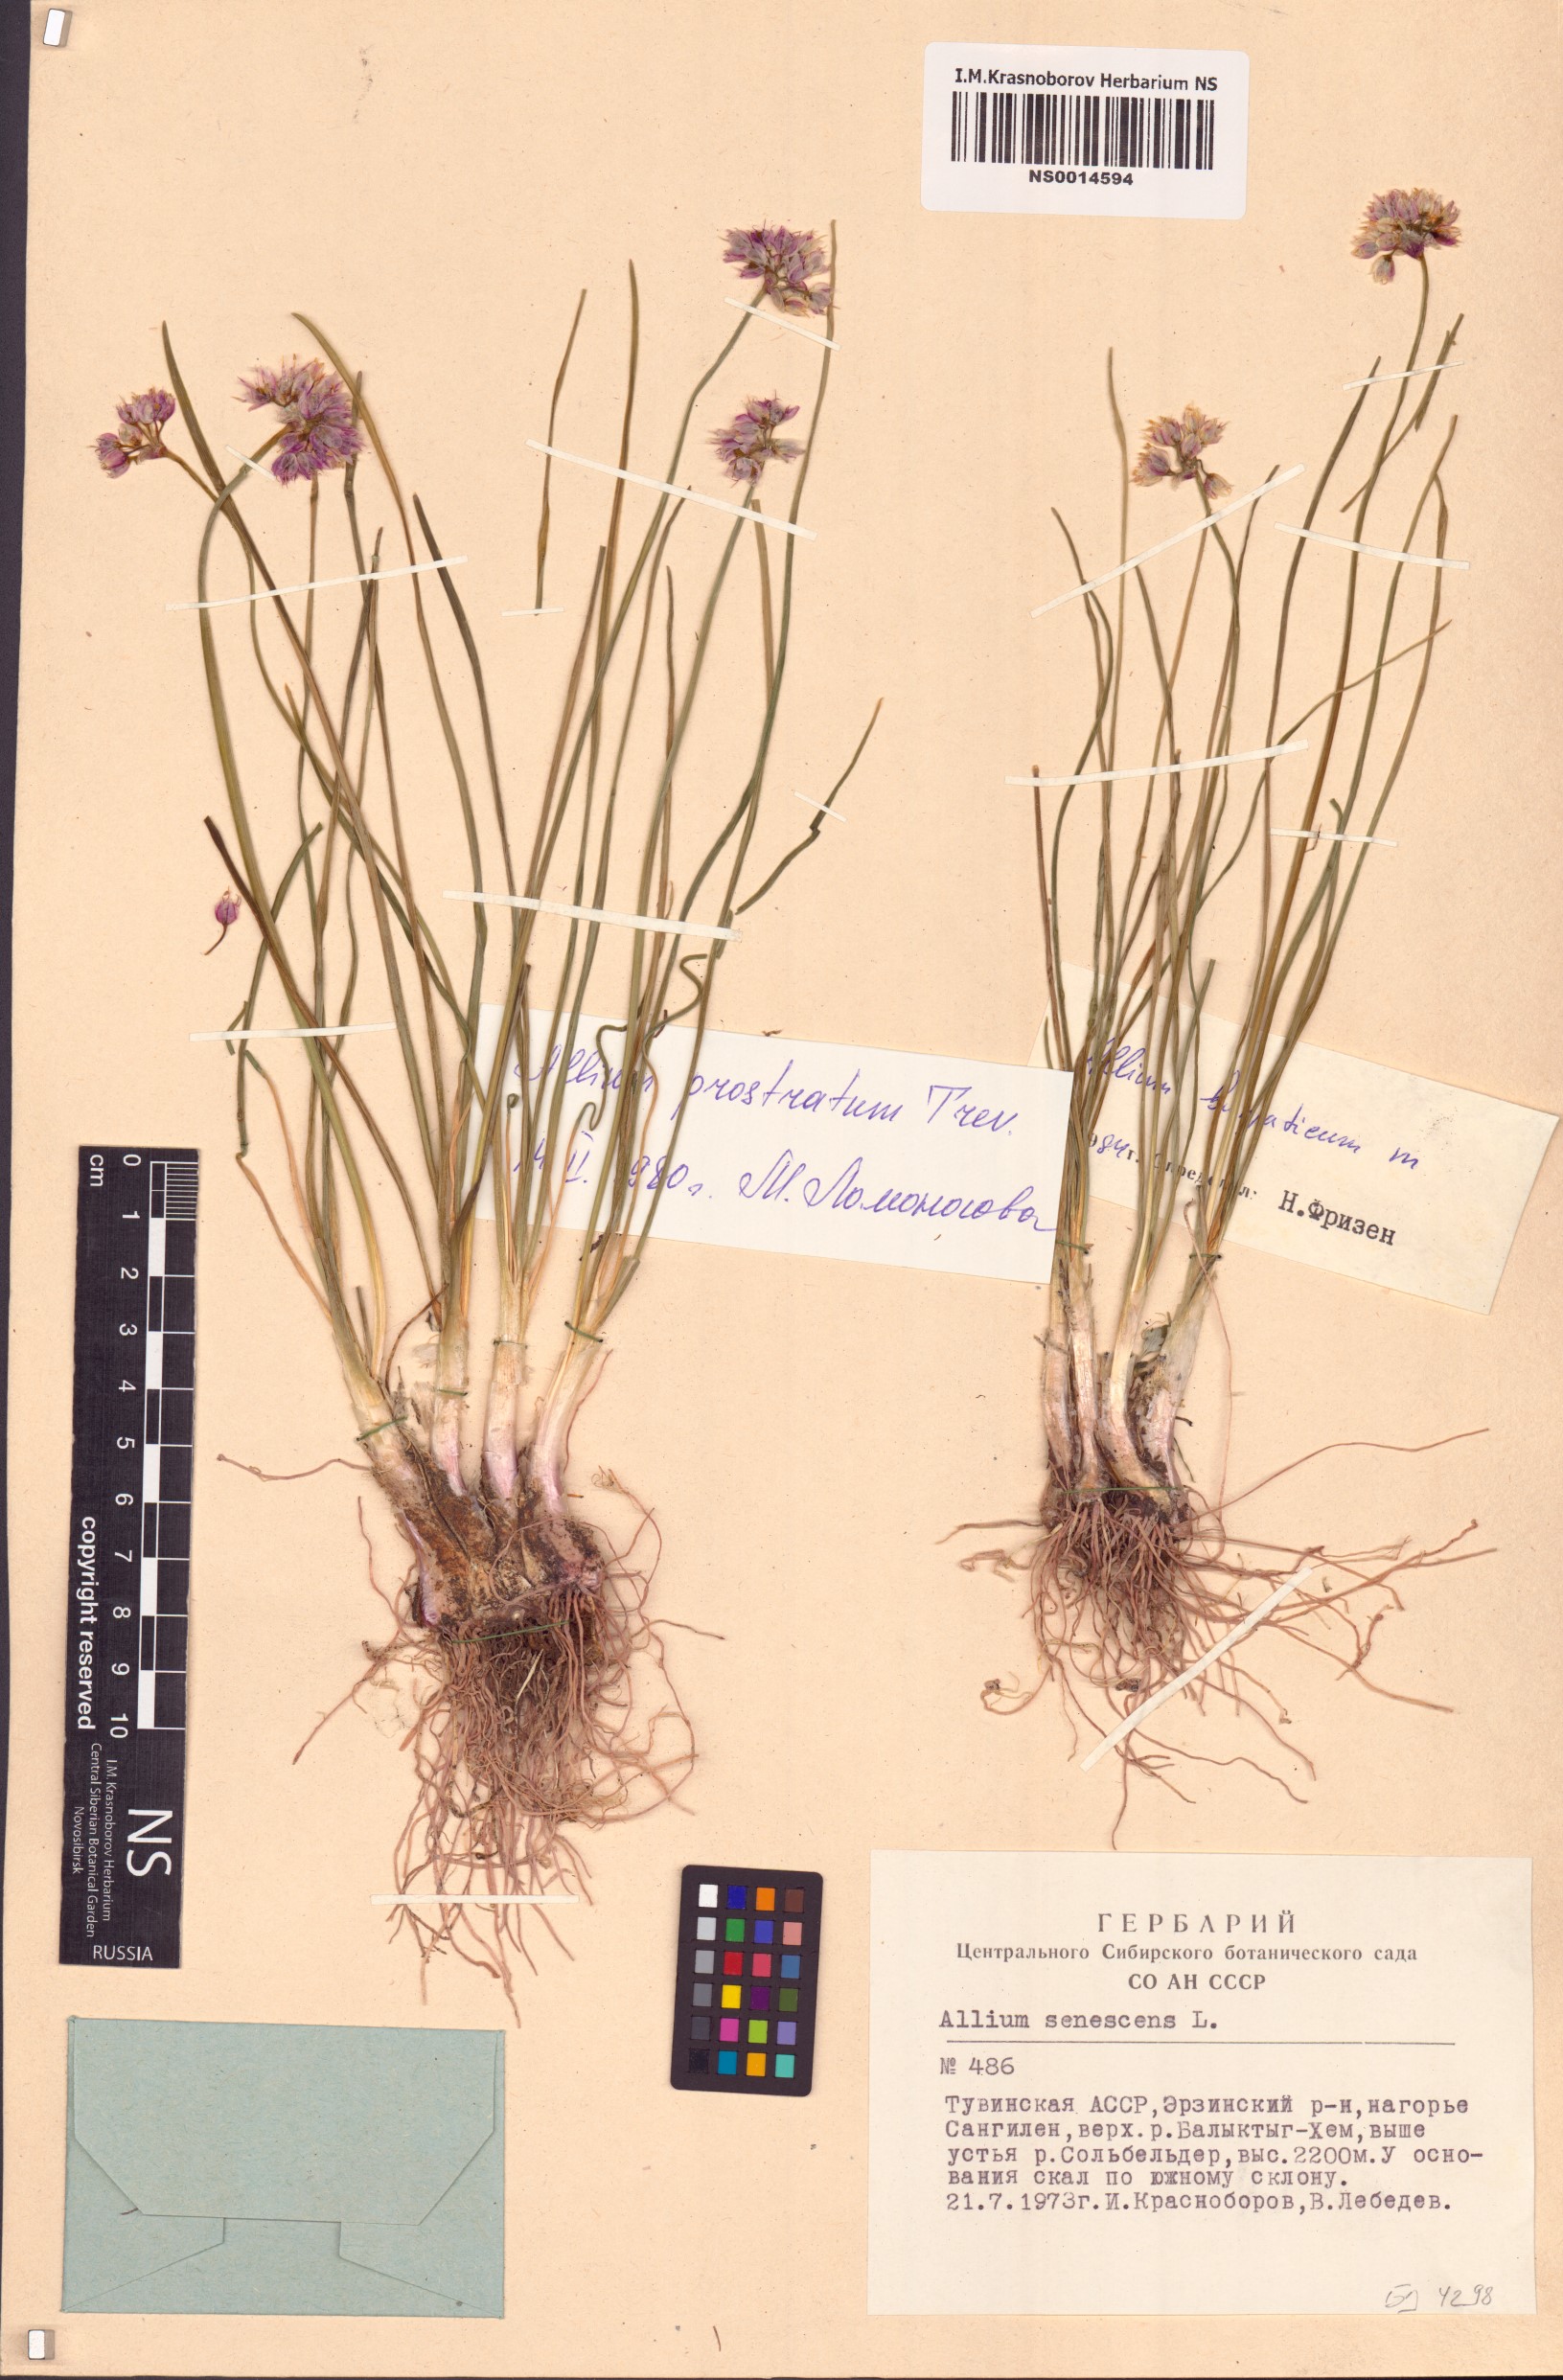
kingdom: Plantae
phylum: Tracheophyta
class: Liliopsida
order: Asparagales
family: Amaryllidaceae
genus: Allium
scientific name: Allium burjaticum
